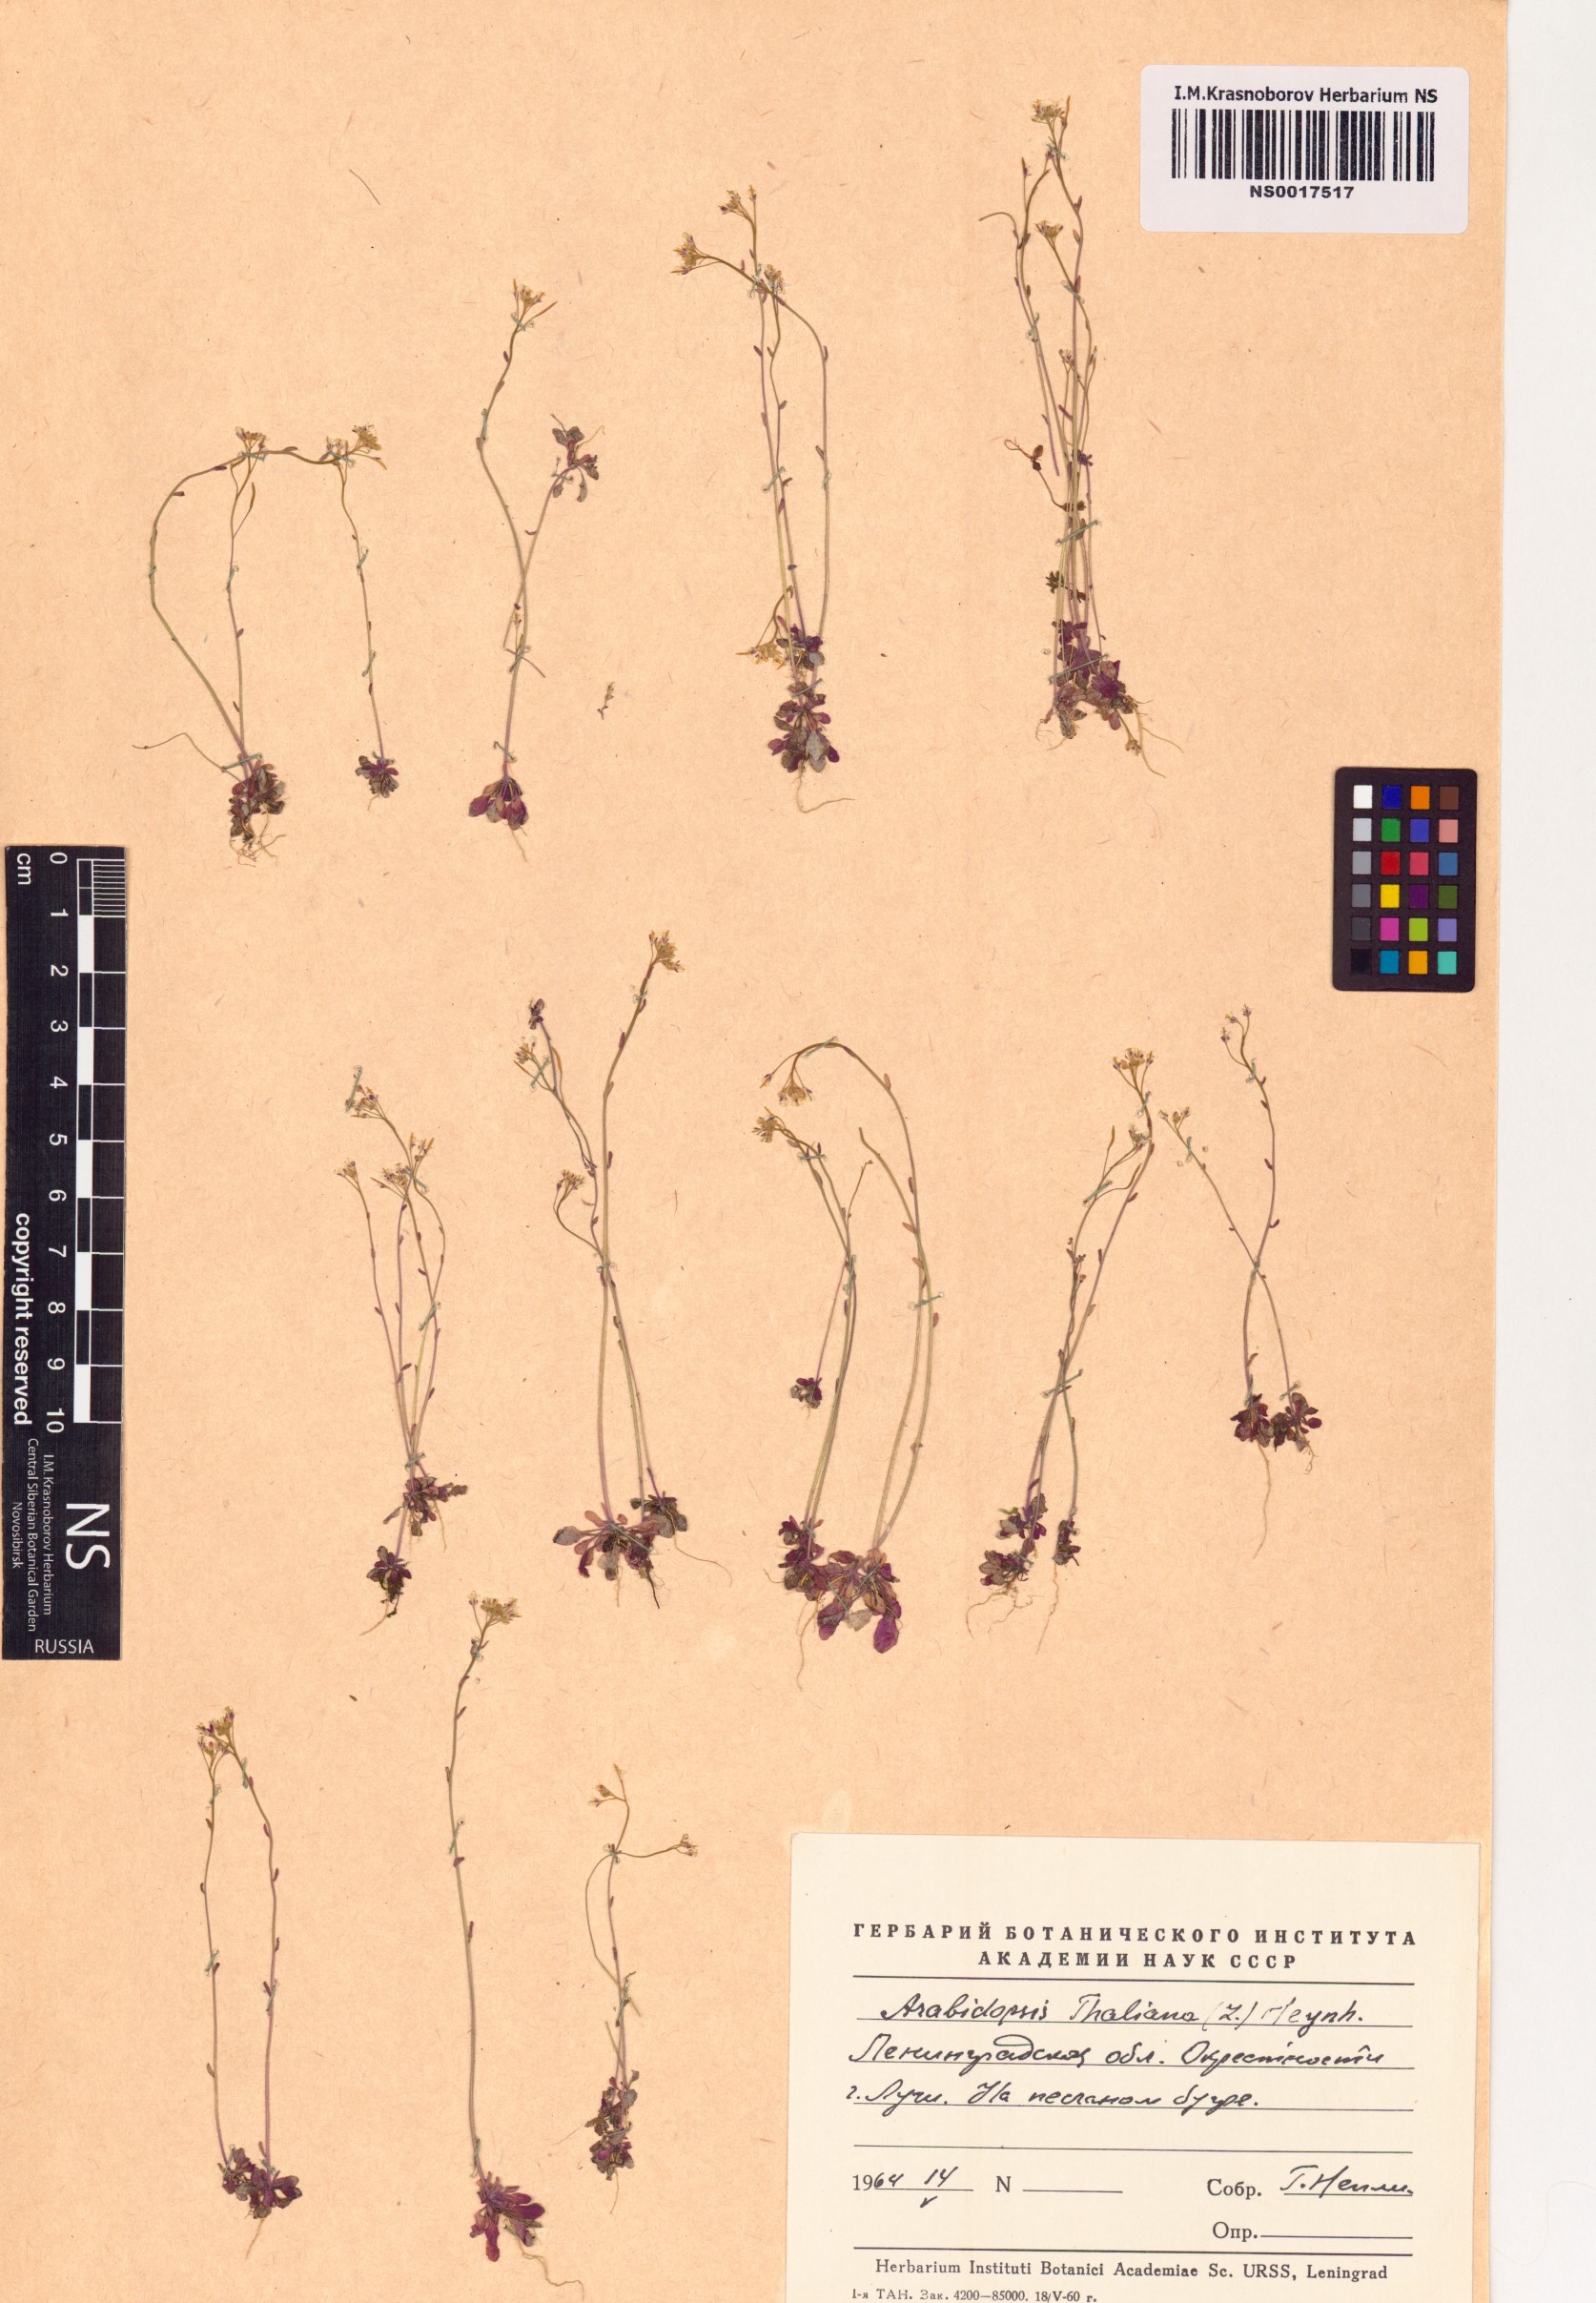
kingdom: Plantae
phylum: Tracheophyta
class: Magnoliopsida
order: Brassicales
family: Brassicaceae
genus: Arabidopsis
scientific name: Arabidopsis thaliana
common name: Thale cress
